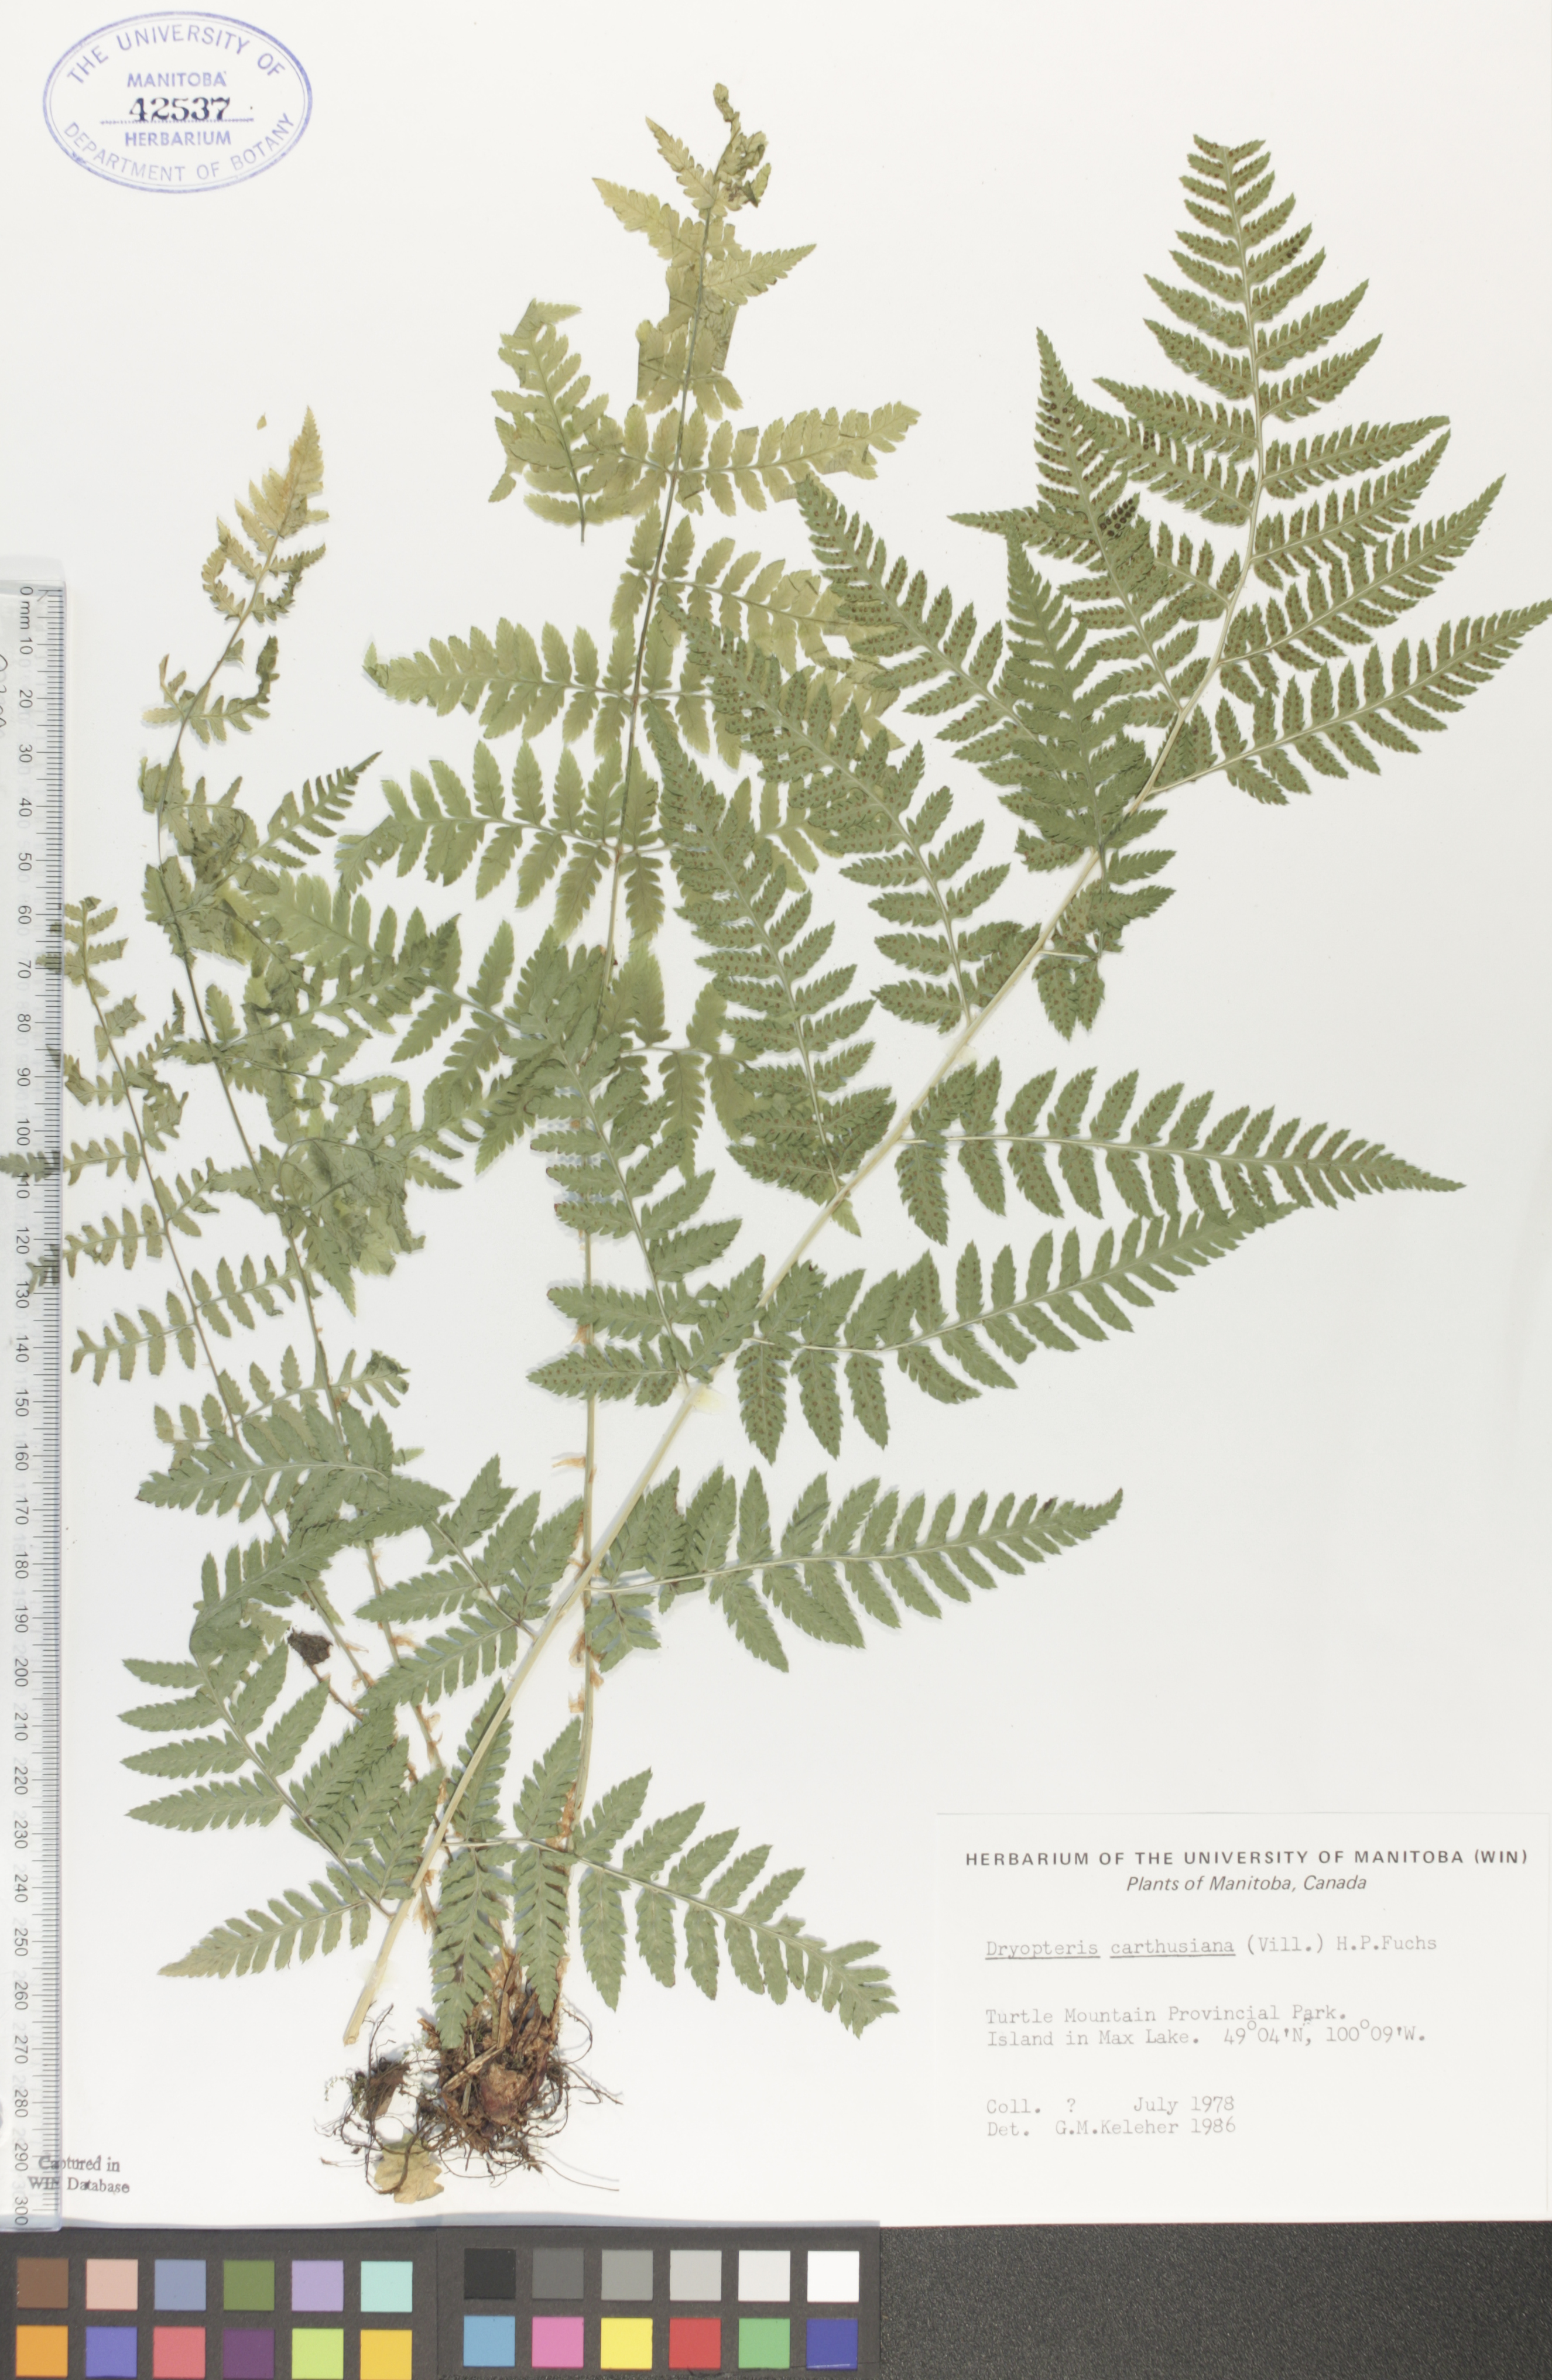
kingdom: Plantae
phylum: Tracheophyta
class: Polypodiopsida
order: Polypodiales
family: Dryopteridaceae
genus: Dryopteris
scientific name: Dryopteris carthusiana
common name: Narrow buckler-fern
